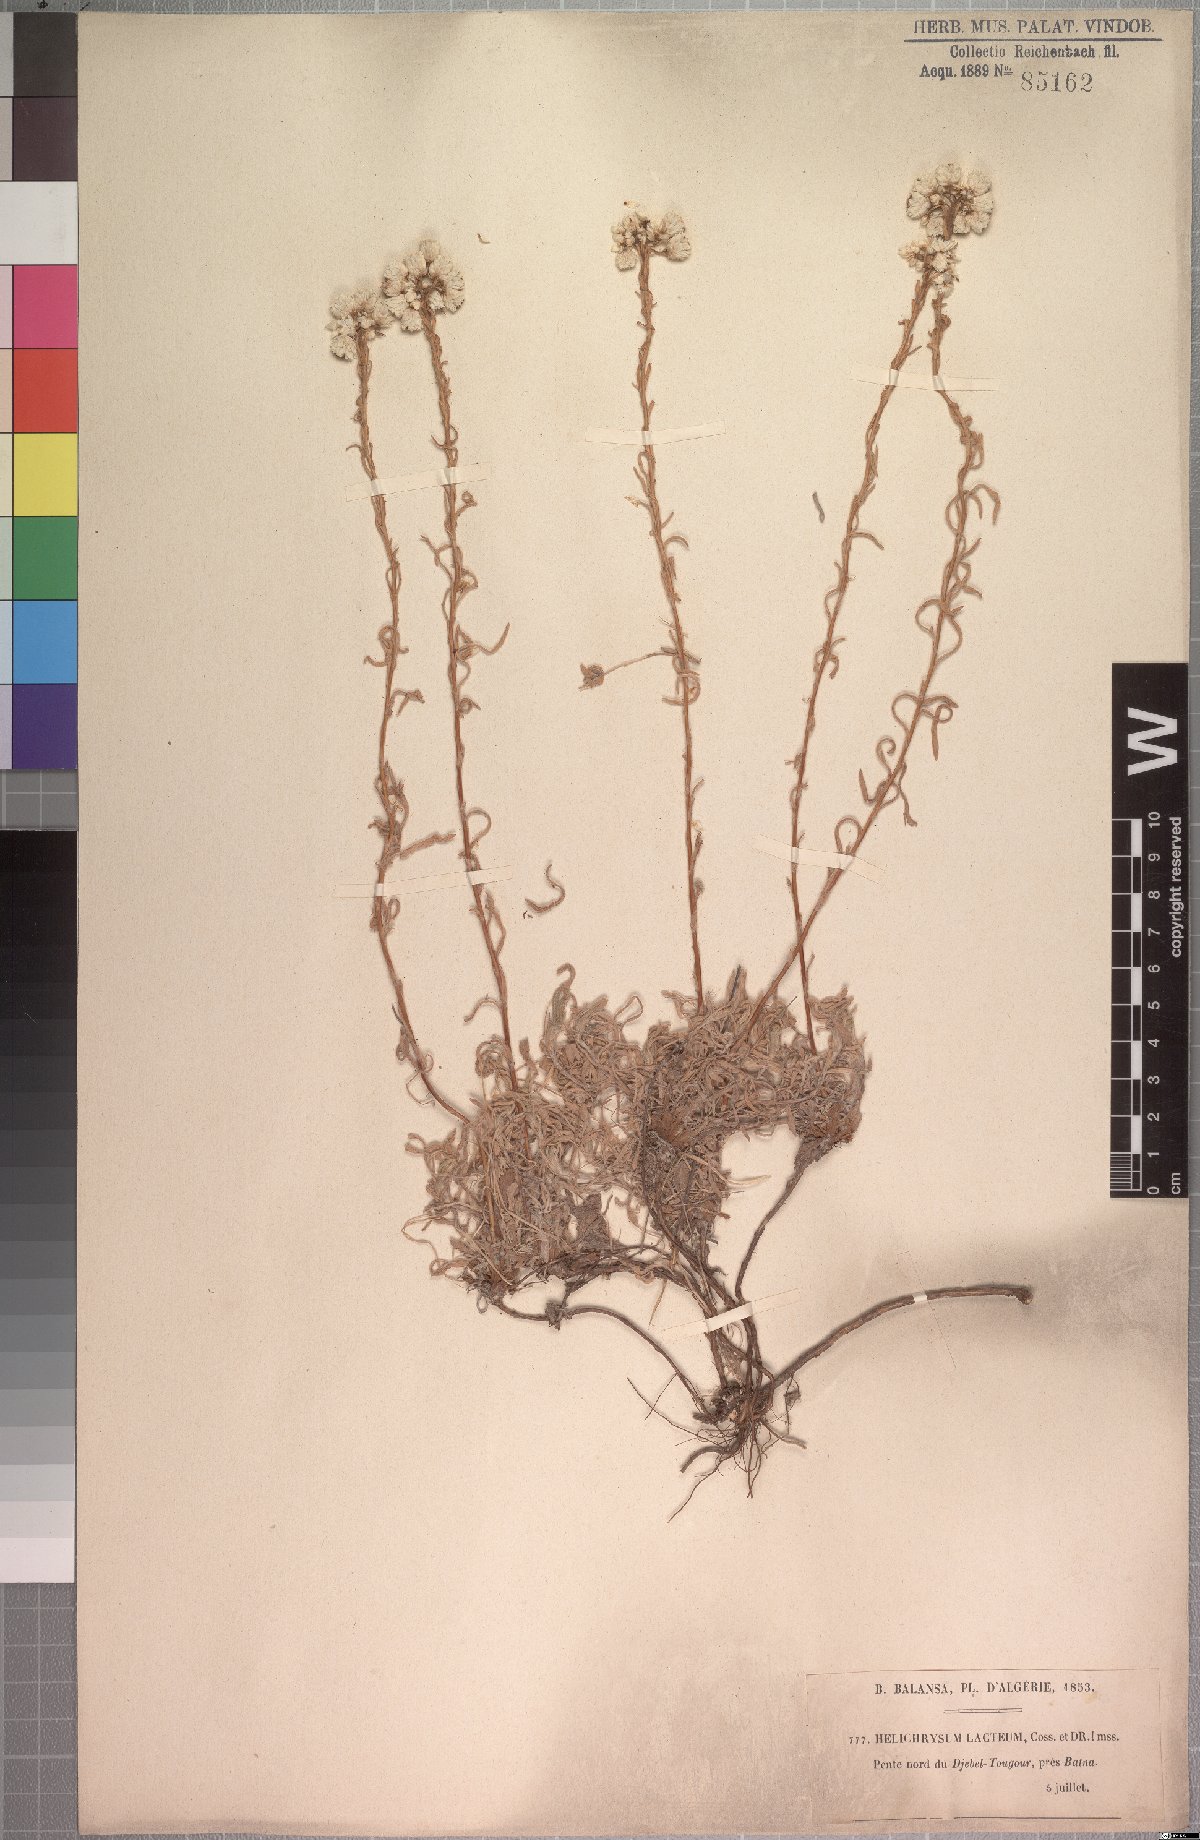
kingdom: Plantae
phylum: Tracheophyta
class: Magnoliopsida
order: Asterales
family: Asteraceae
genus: Helichrysum
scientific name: Helichrysum lacteum
